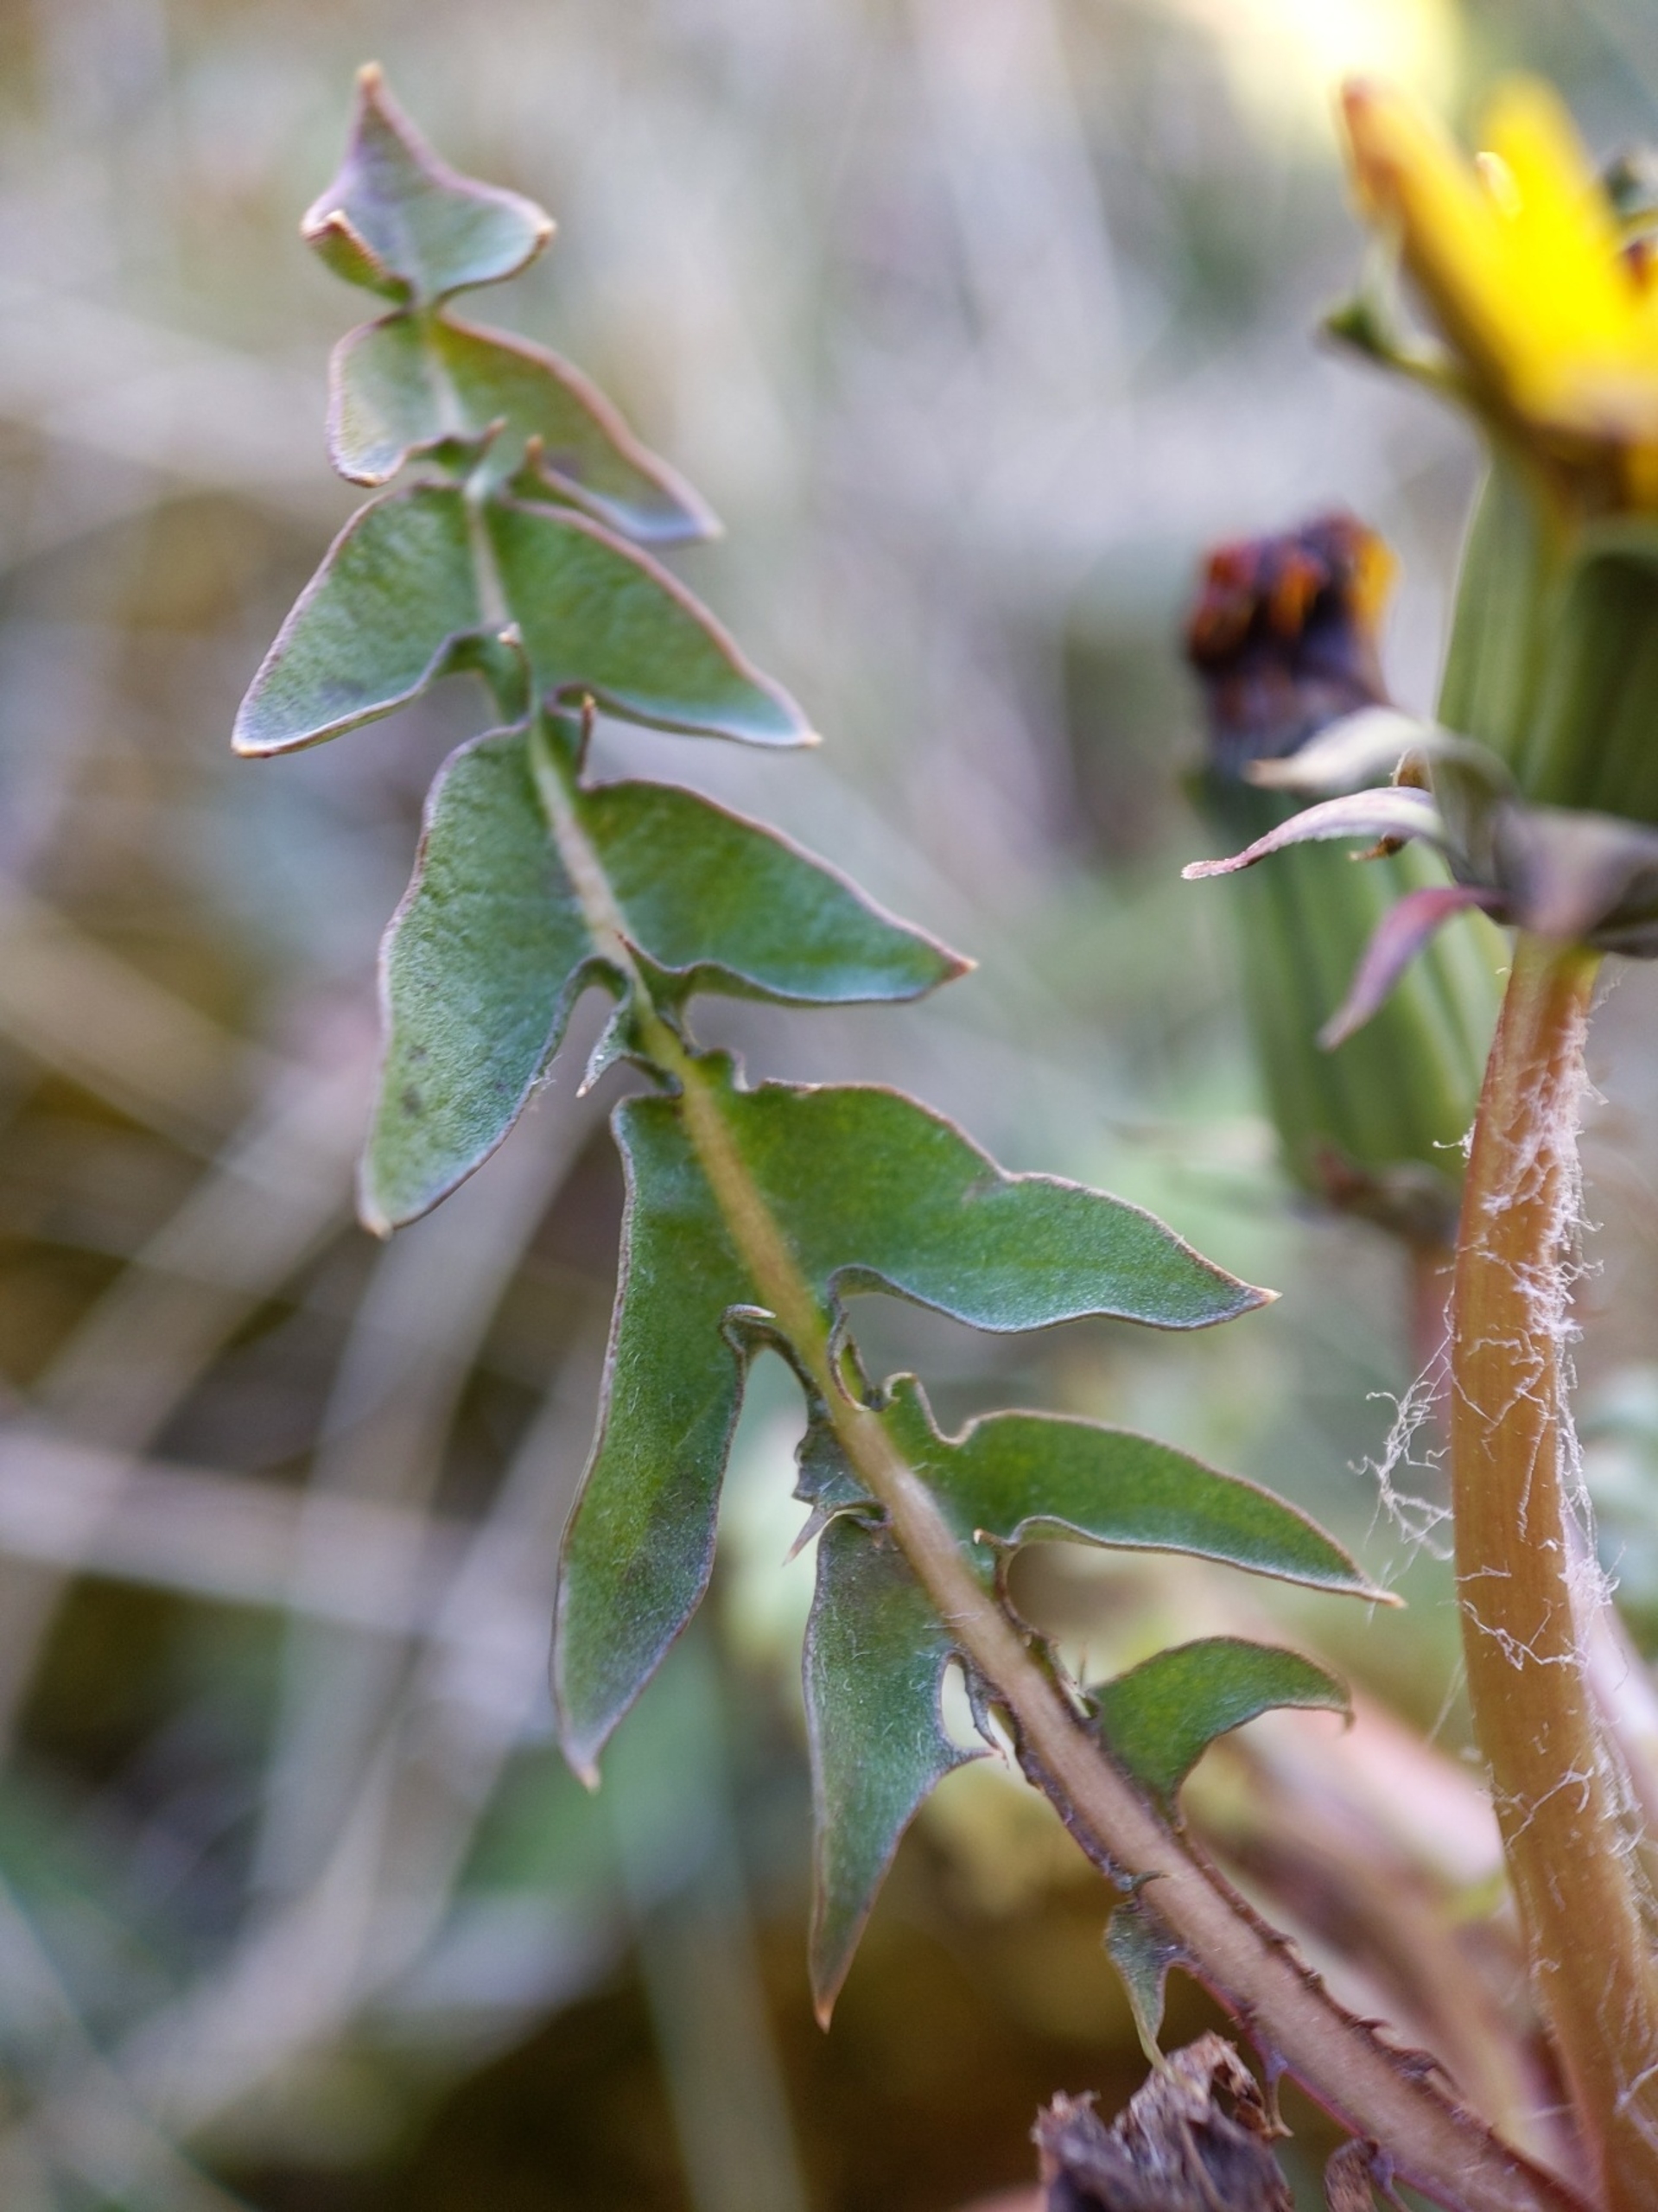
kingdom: Plantae
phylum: Tracheophyta
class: Magnoliopsida
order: Asterales
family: Asteraceae
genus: Taraxacum
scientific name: Taraxacum
